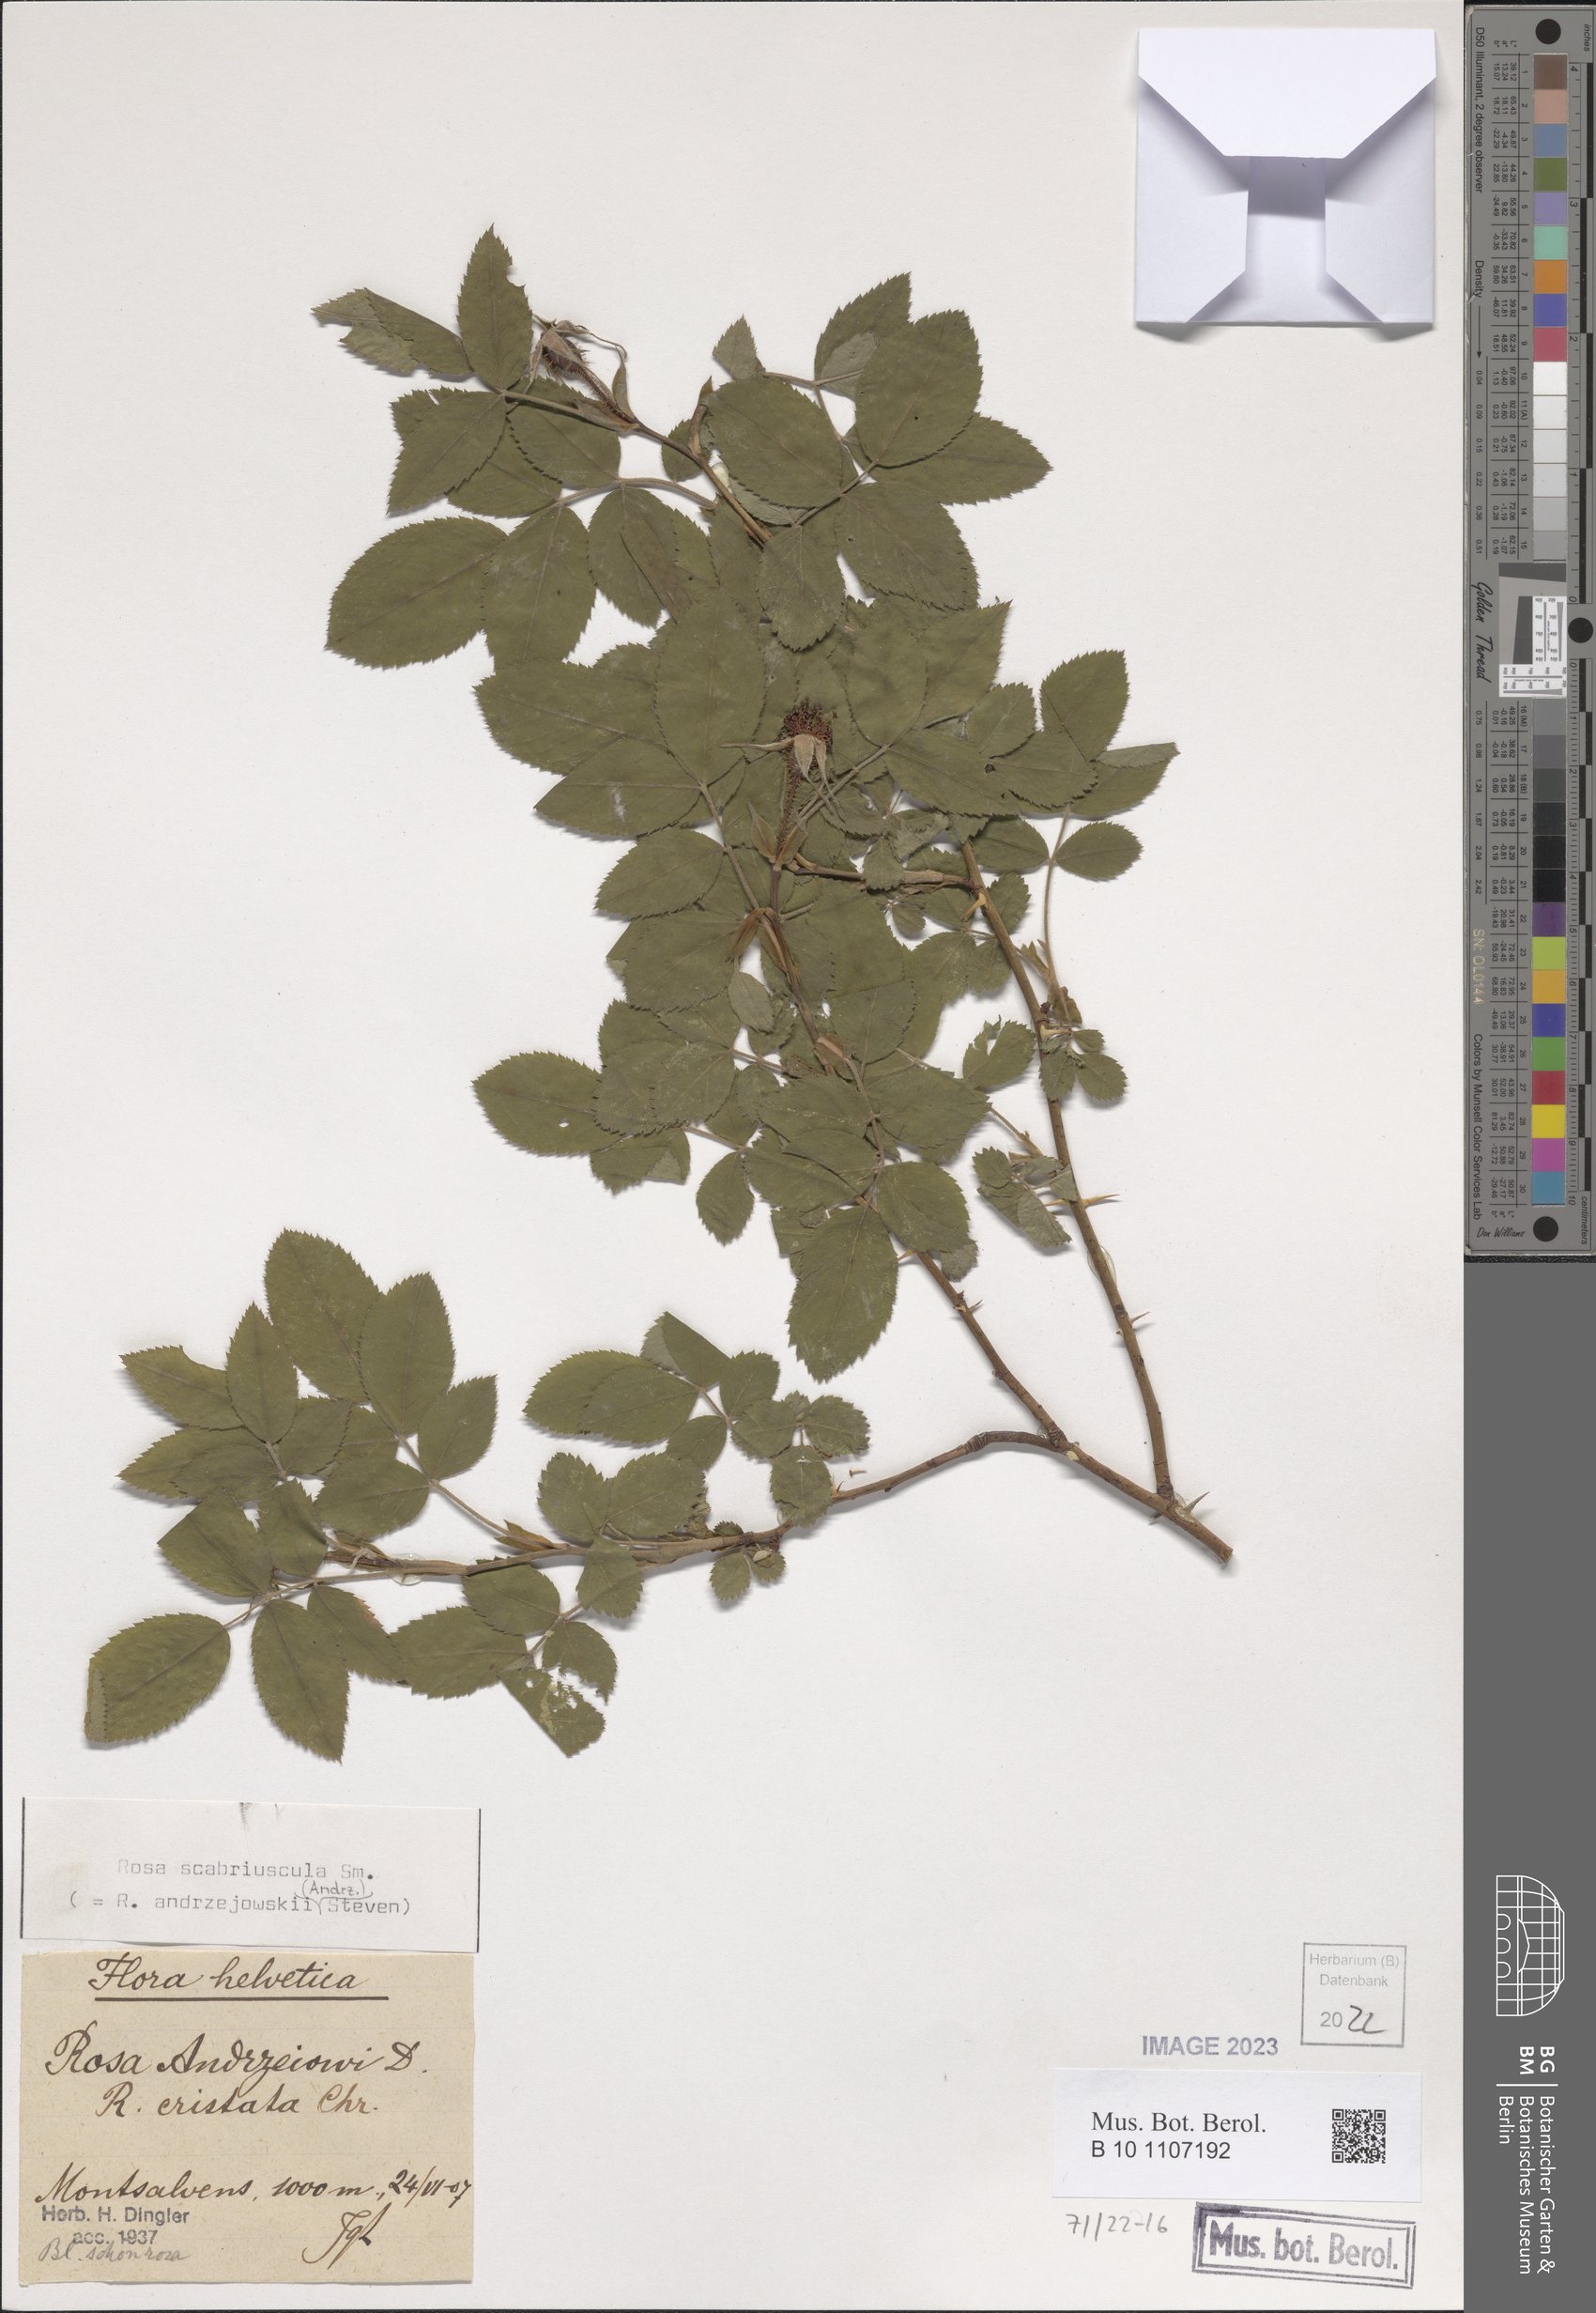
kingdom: Plantae
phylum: Tracheophyta
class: Magnoliopsida
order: Rosales
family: Rosaceae
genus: Rosa
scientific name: Rosa scabriuscula
